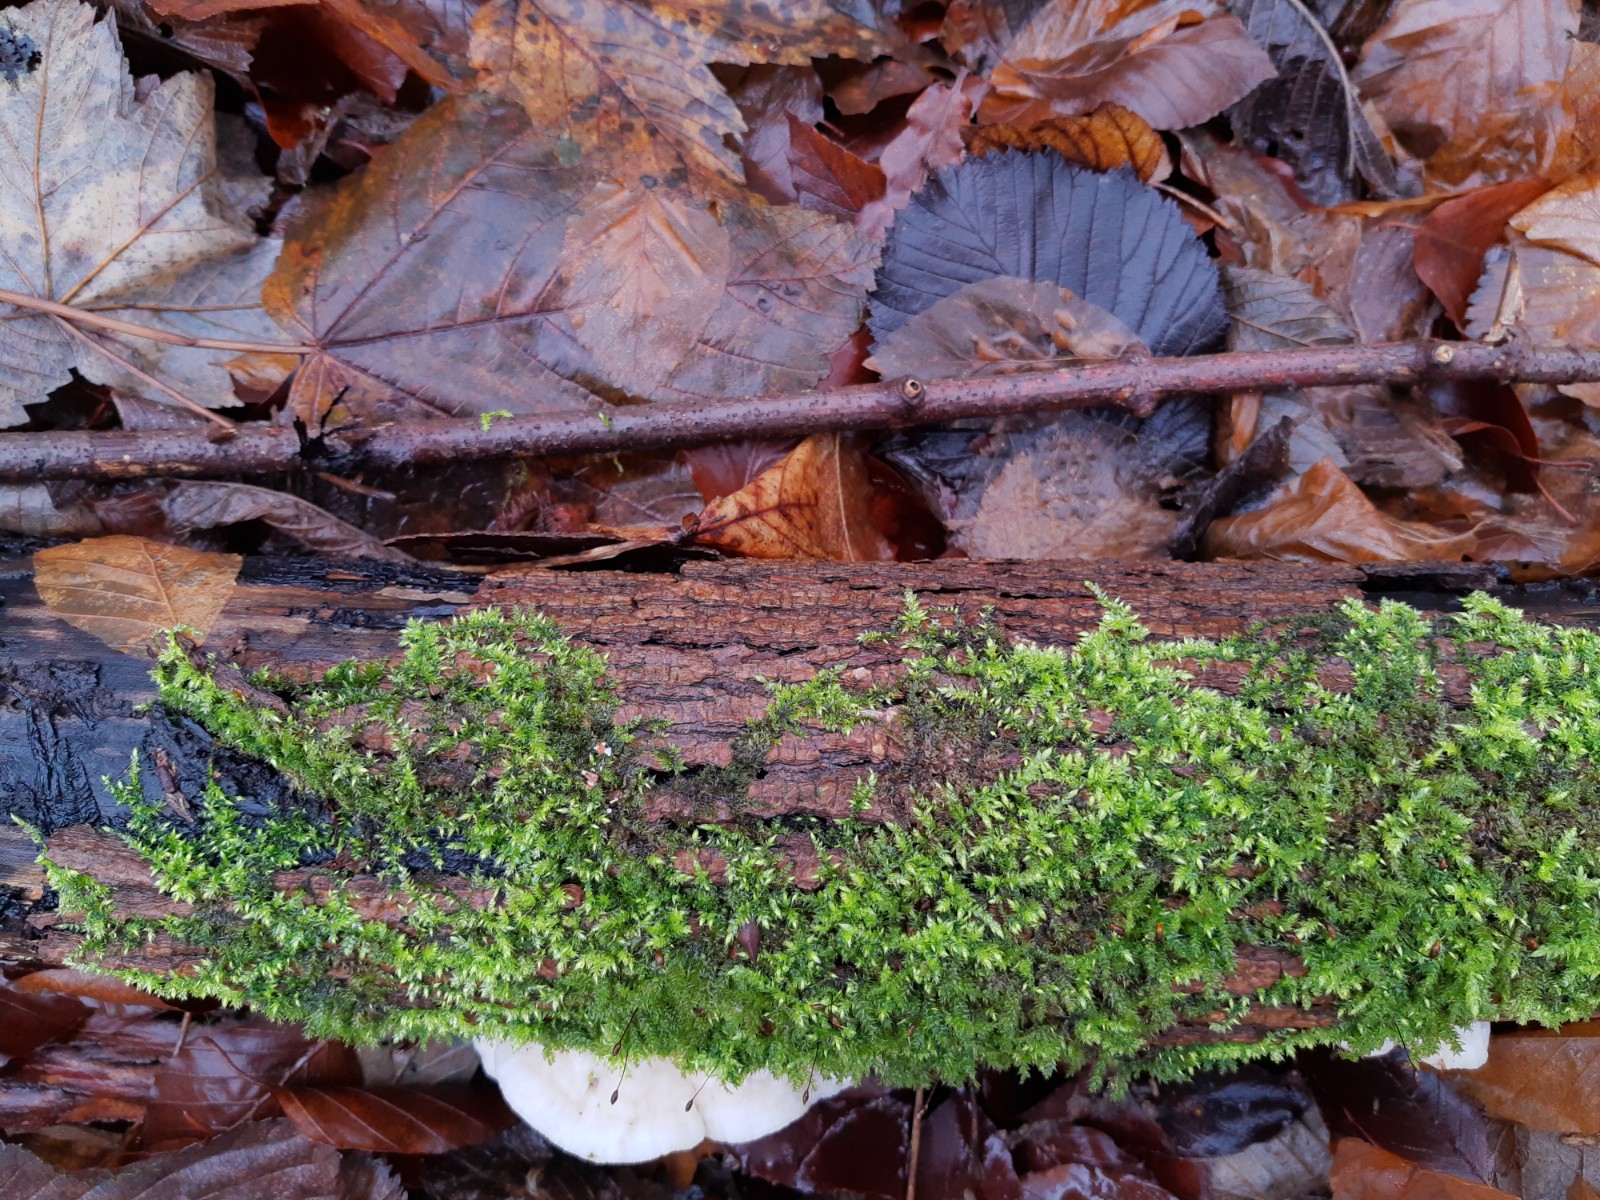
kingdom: Fungi
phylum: Basidiomycota
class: Agaricomycetes
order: Polyporales
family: Irpicaceae
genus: Vitreoporus
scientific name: Vitreoporus dichrous
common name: tofarvet foldporesvamp
